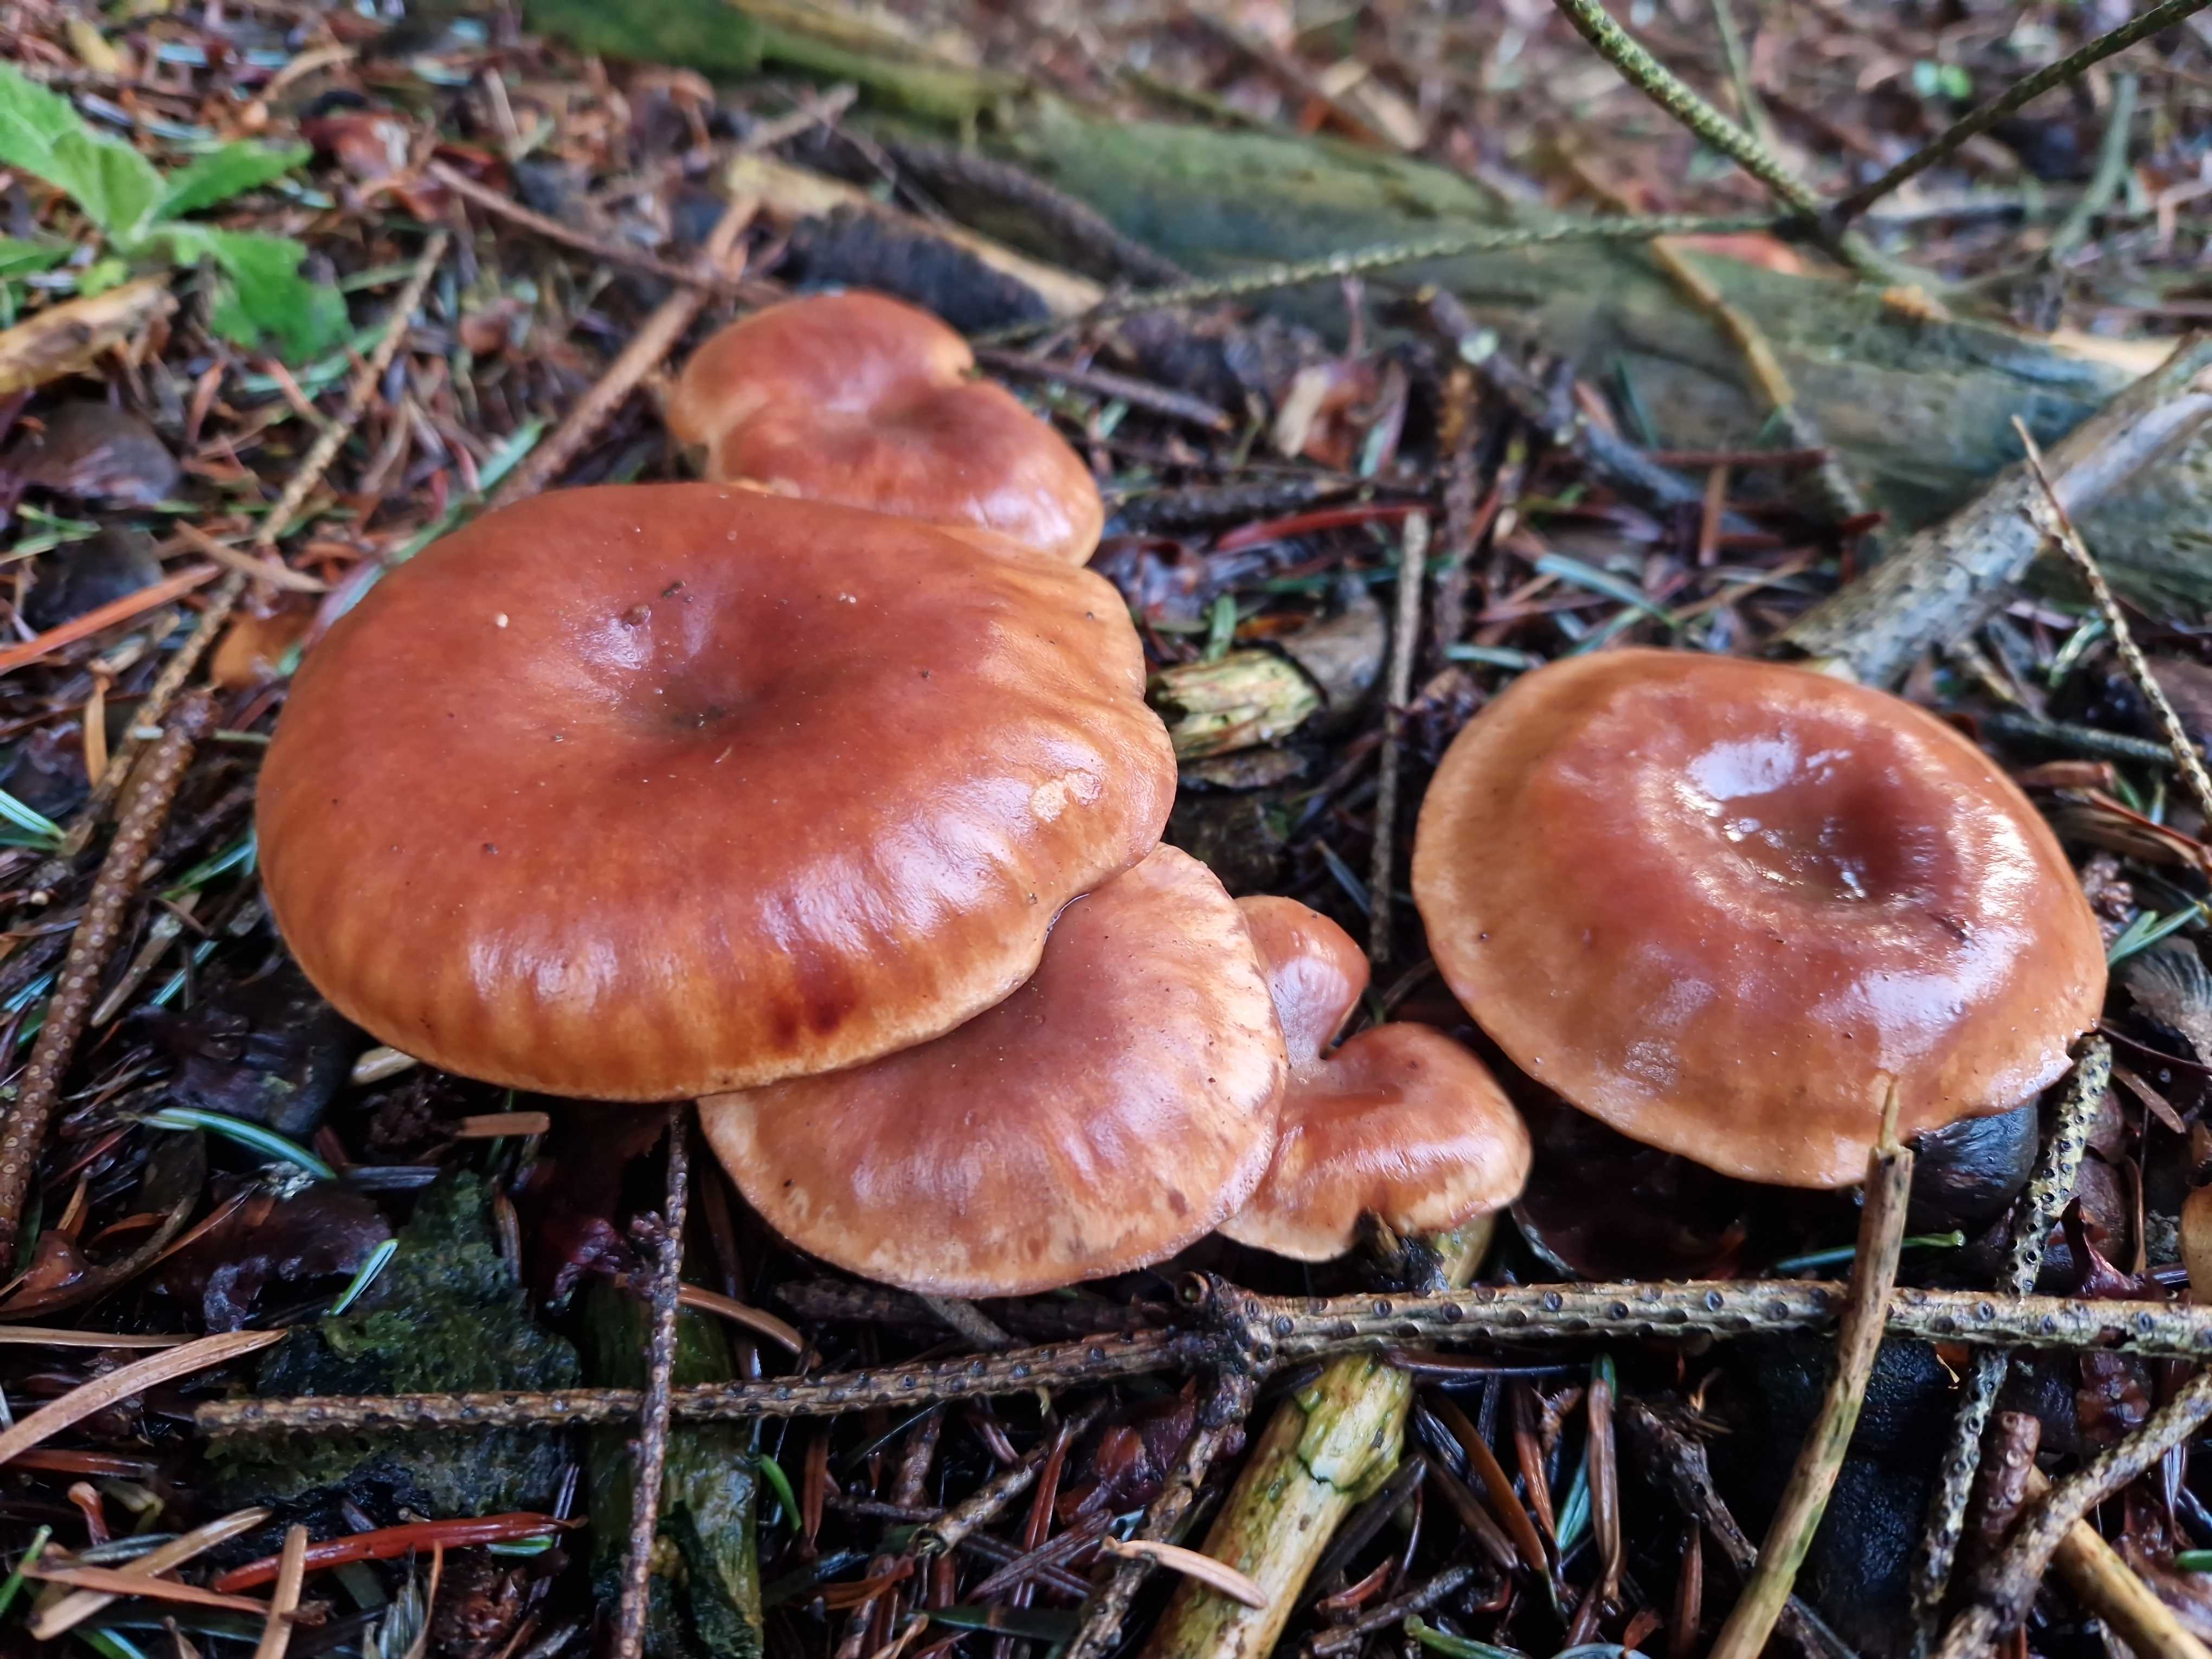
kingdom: Fungi
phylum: Basidiomycota
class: Agaricomycetes
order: Agaricales
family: Tricholomataceae
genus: Paralepista
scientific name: Paralepista flaccida
